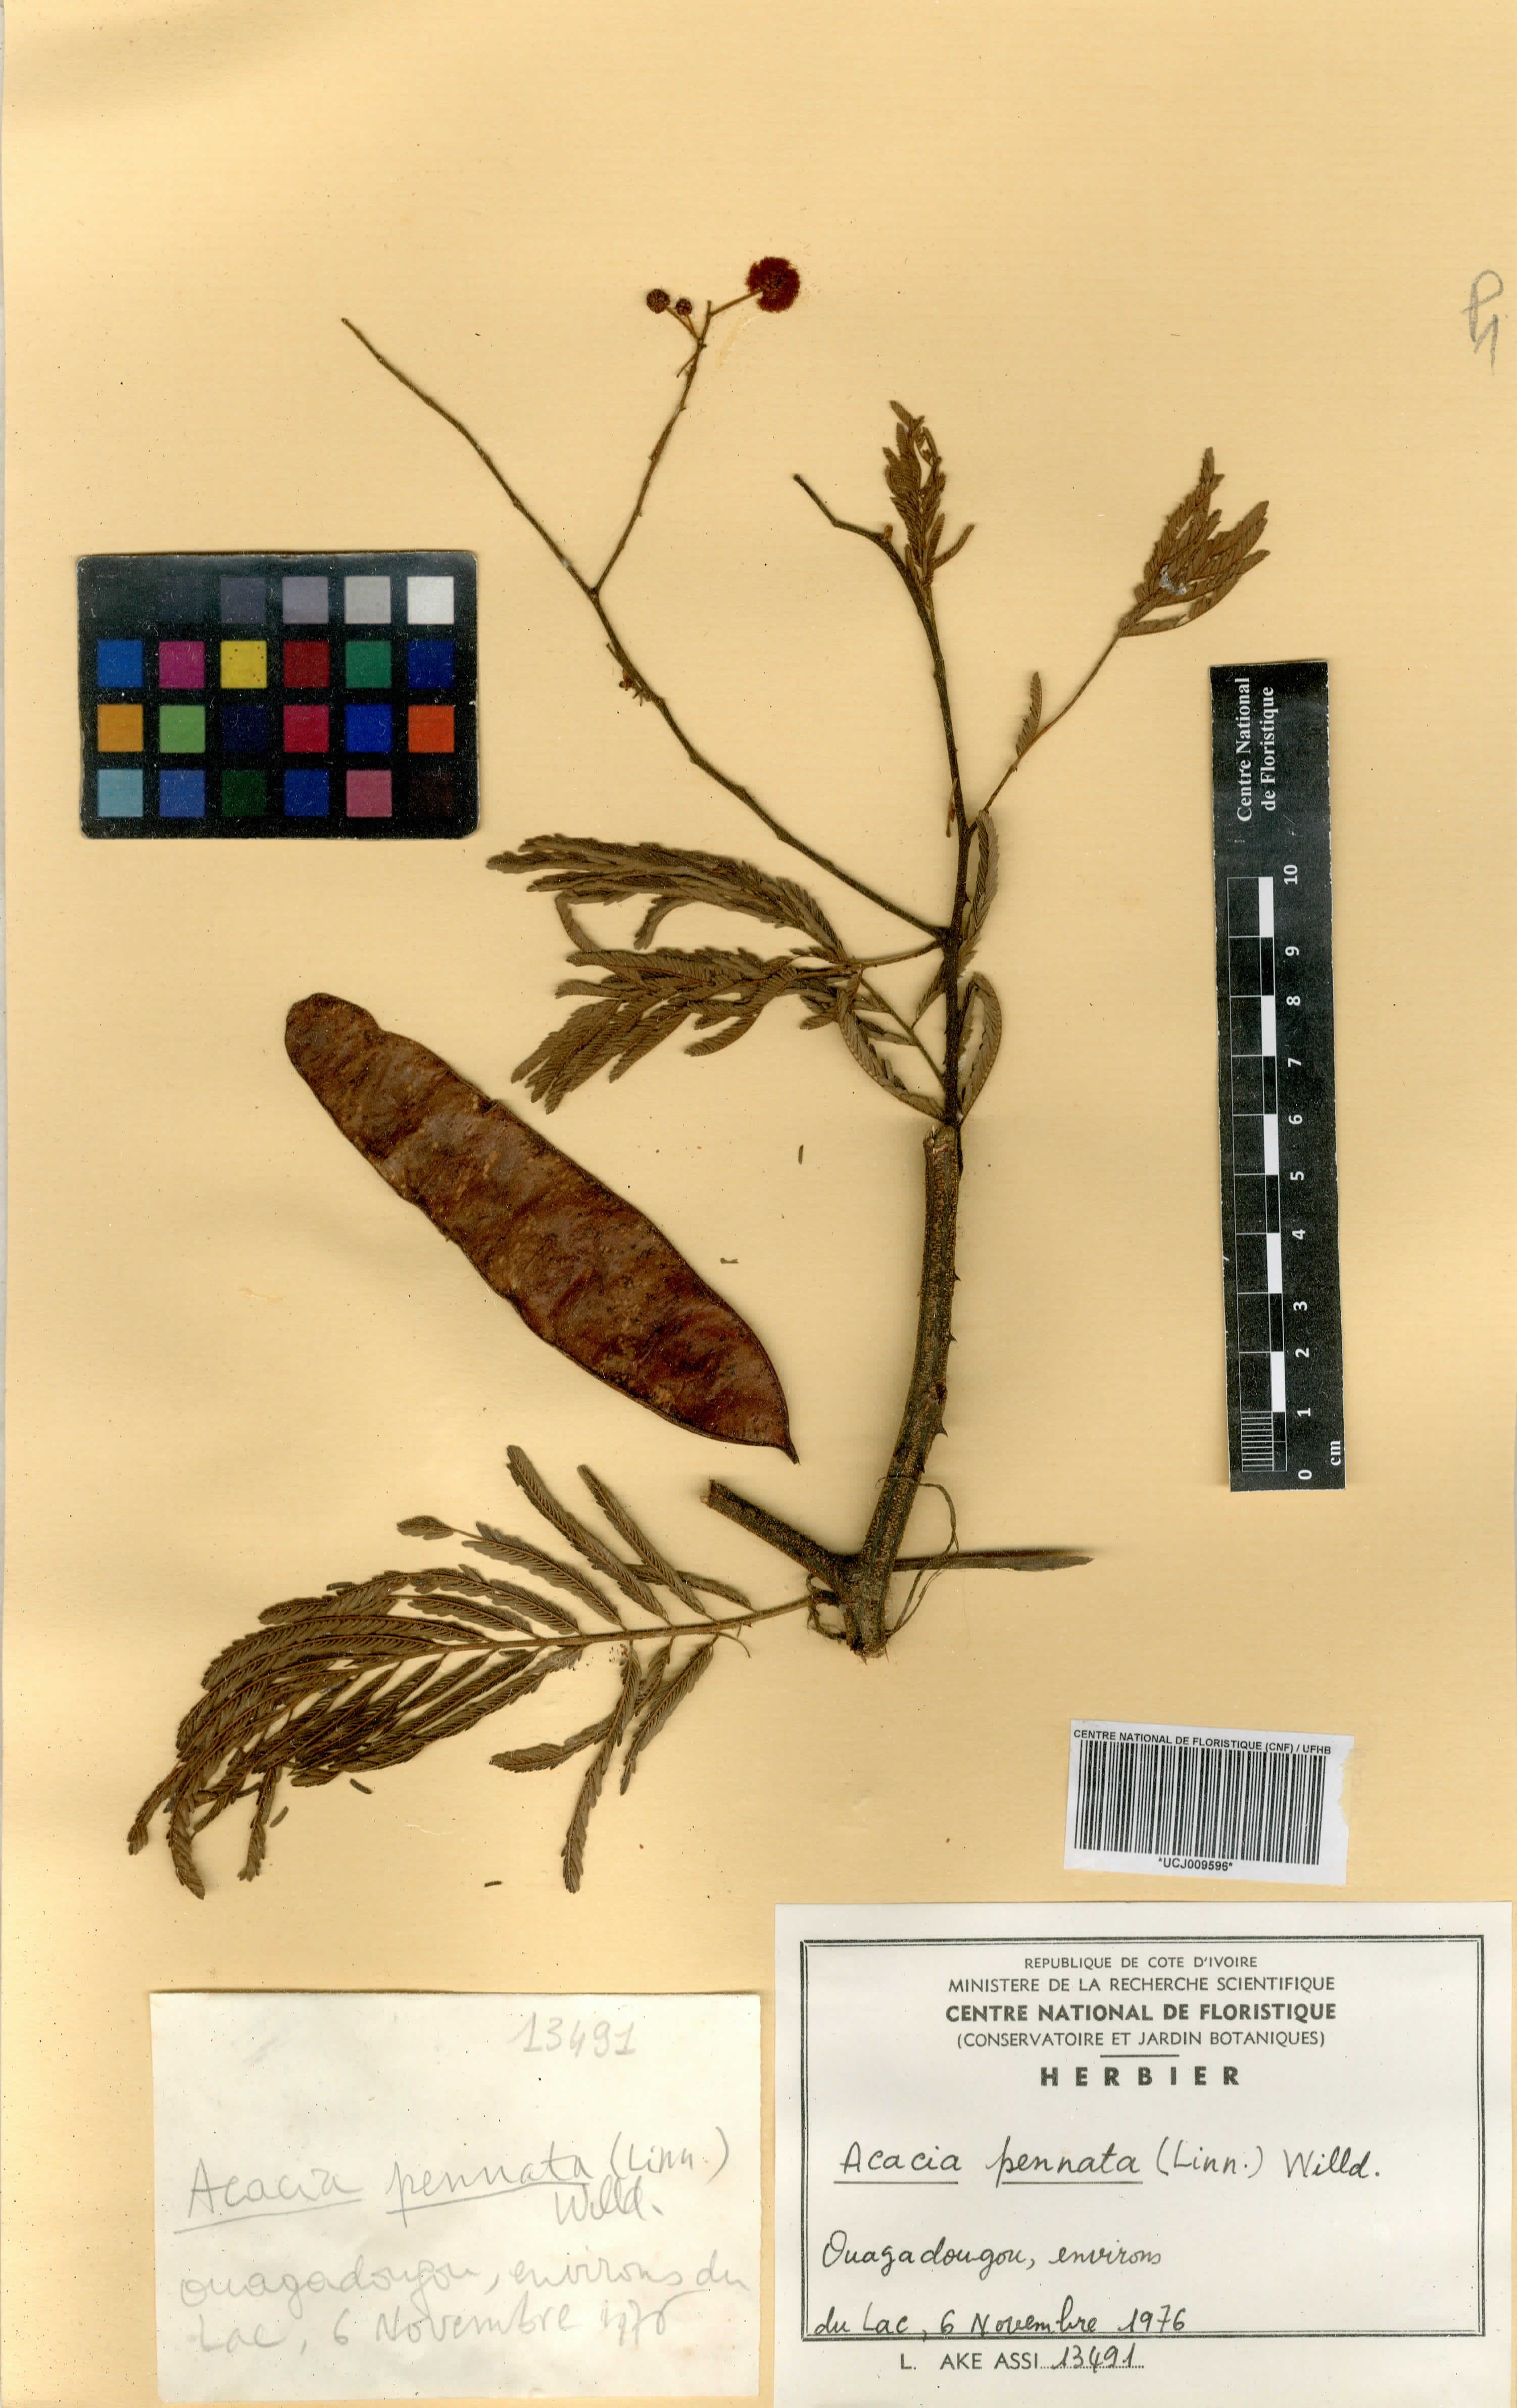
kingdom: Plantae
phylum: Tracheophyta
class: Magnoliopsida
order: Fabales
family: Fabaceae
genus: Senegalia
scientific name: Senegalia pennata
